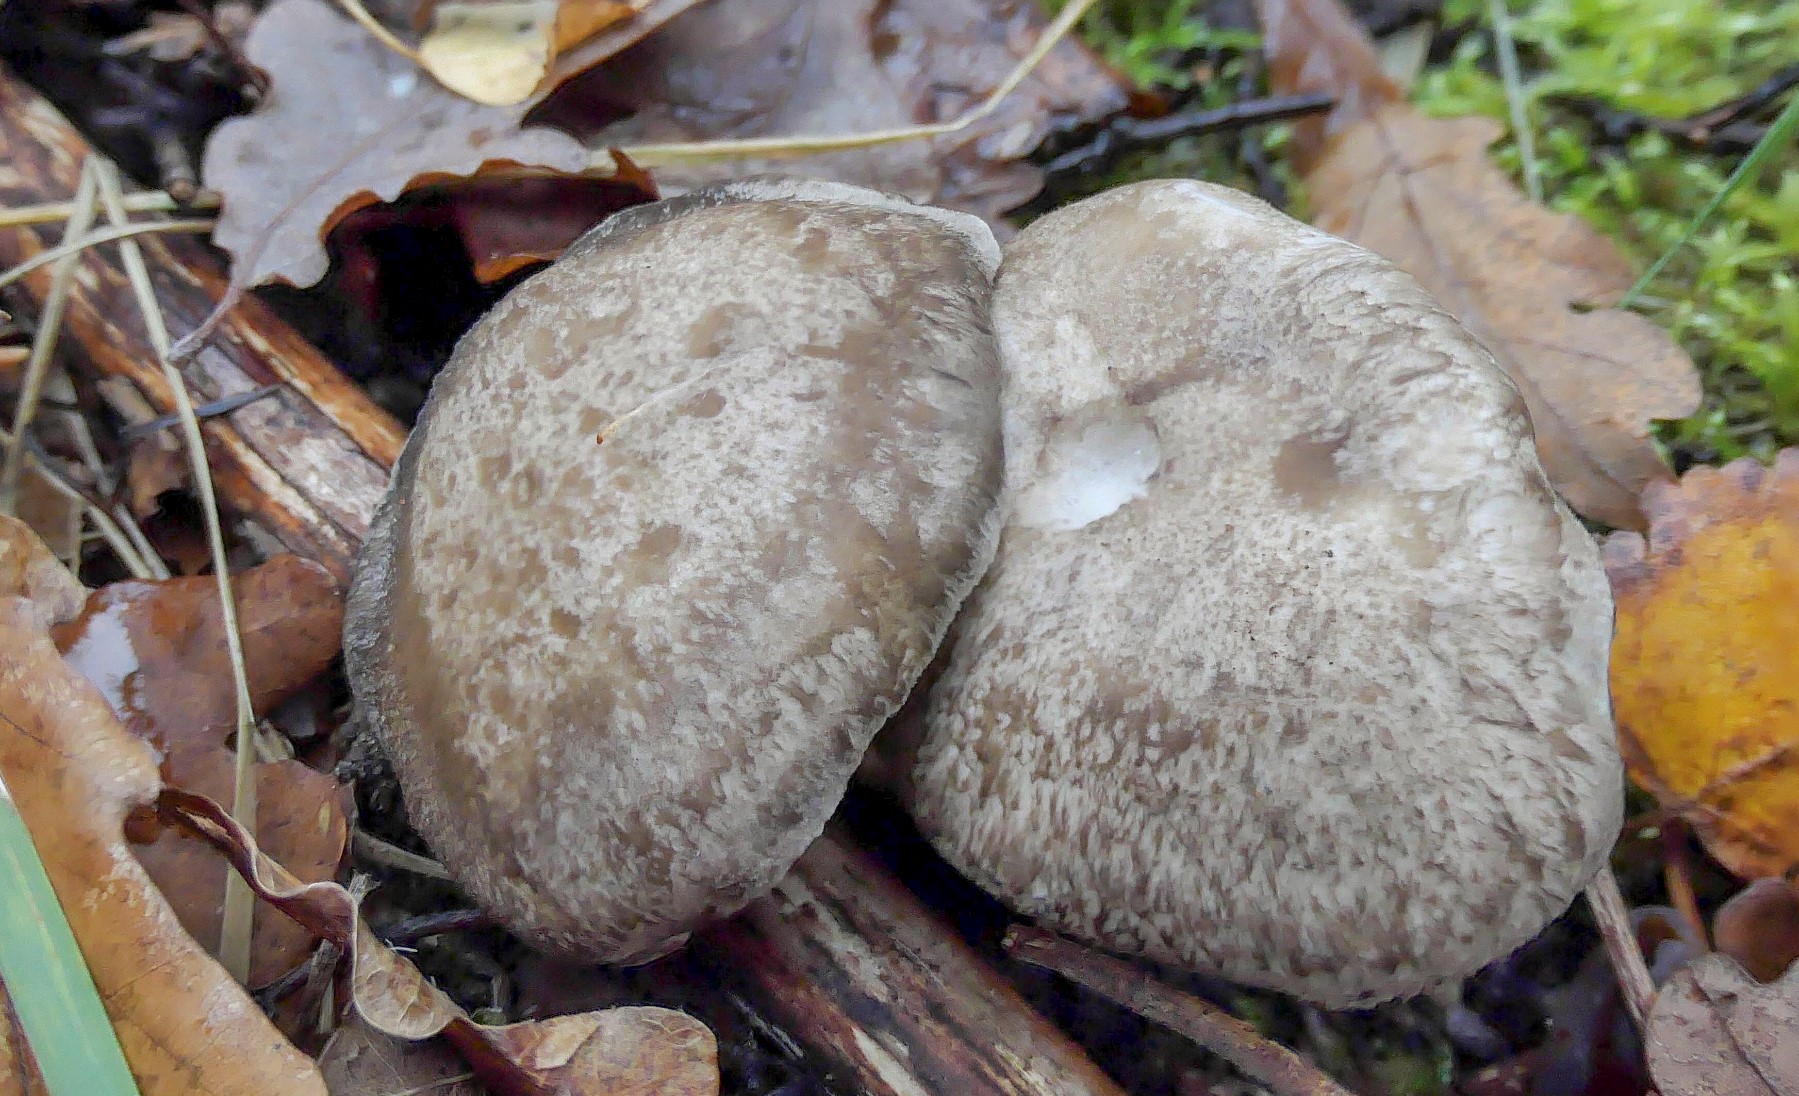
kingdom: Fungi
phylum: Basidiomycota
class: Agaricomycetes
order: Polyporales
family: Polyporaceae
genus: Picipes
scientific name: Picipes melanopus
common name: sortfodet stilkporesvamp
